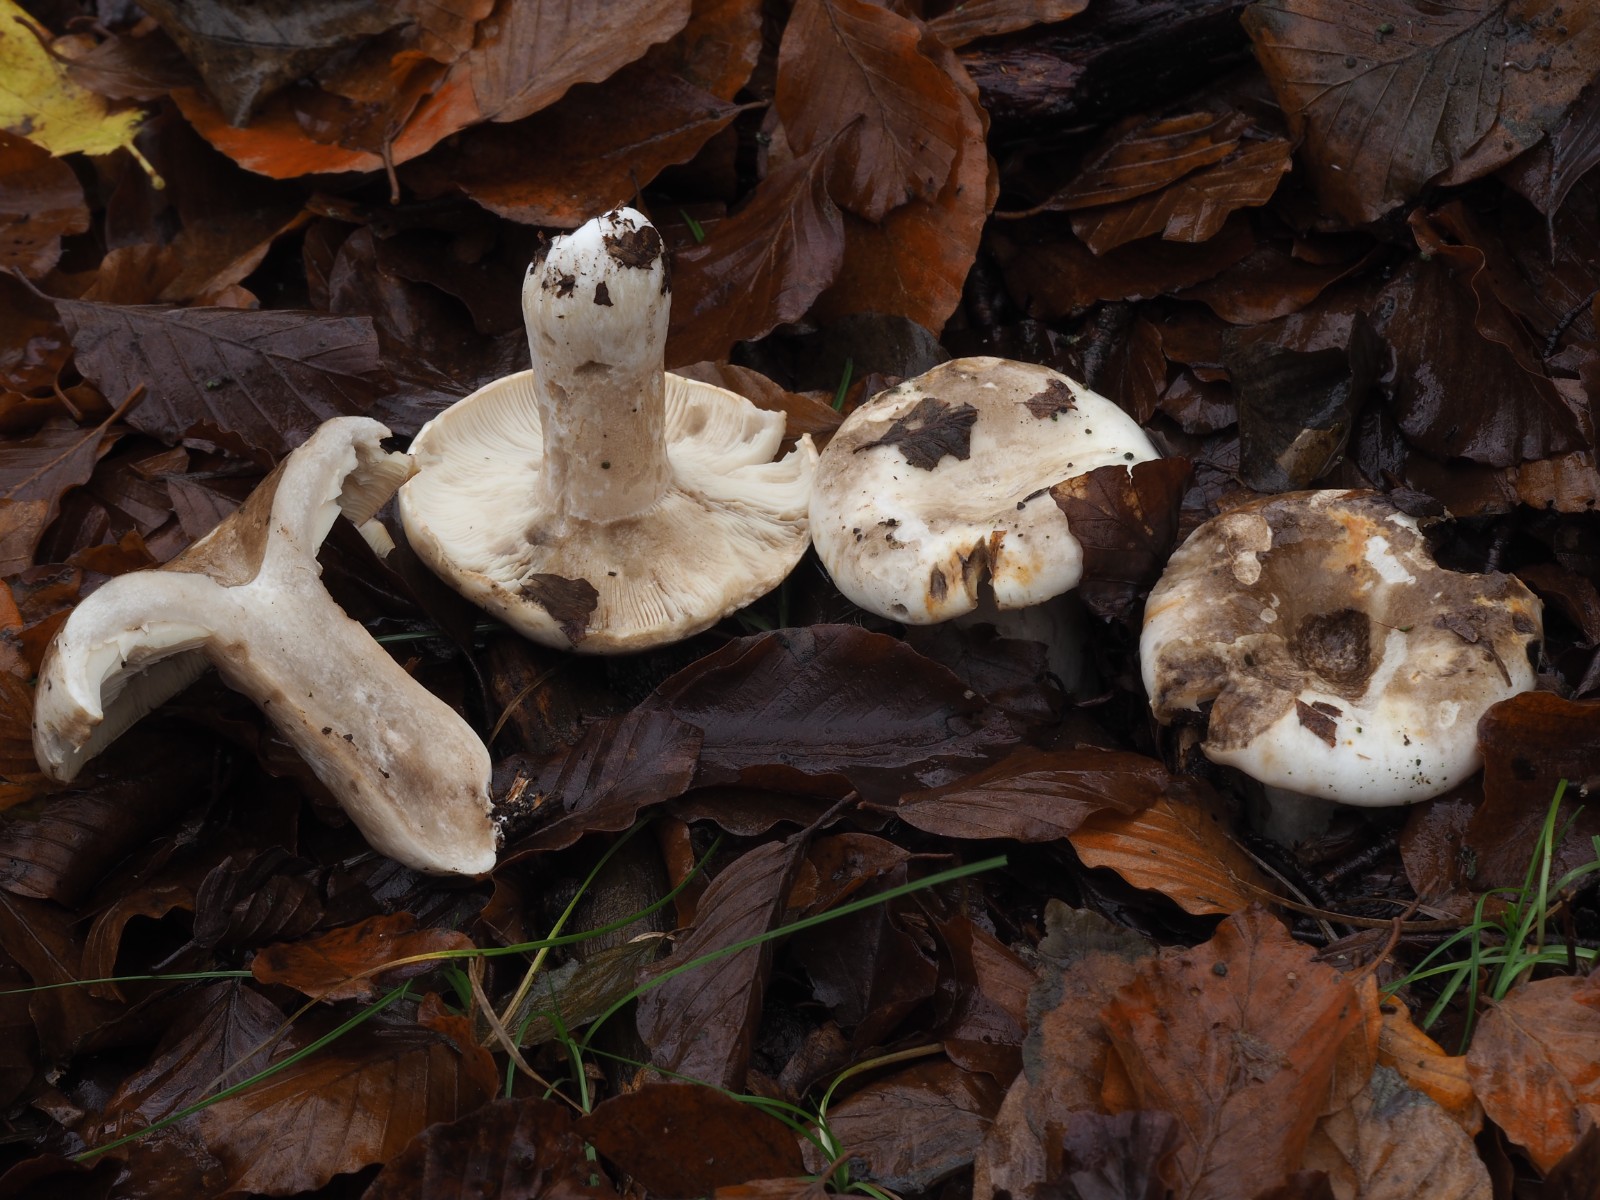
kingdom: Fungi
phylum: Basidiomycota
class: Agaricomycetes
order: Russulales
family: Russulaceae
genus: Russula
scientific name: Russula acrifolia
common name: skarpbladet skørhat
